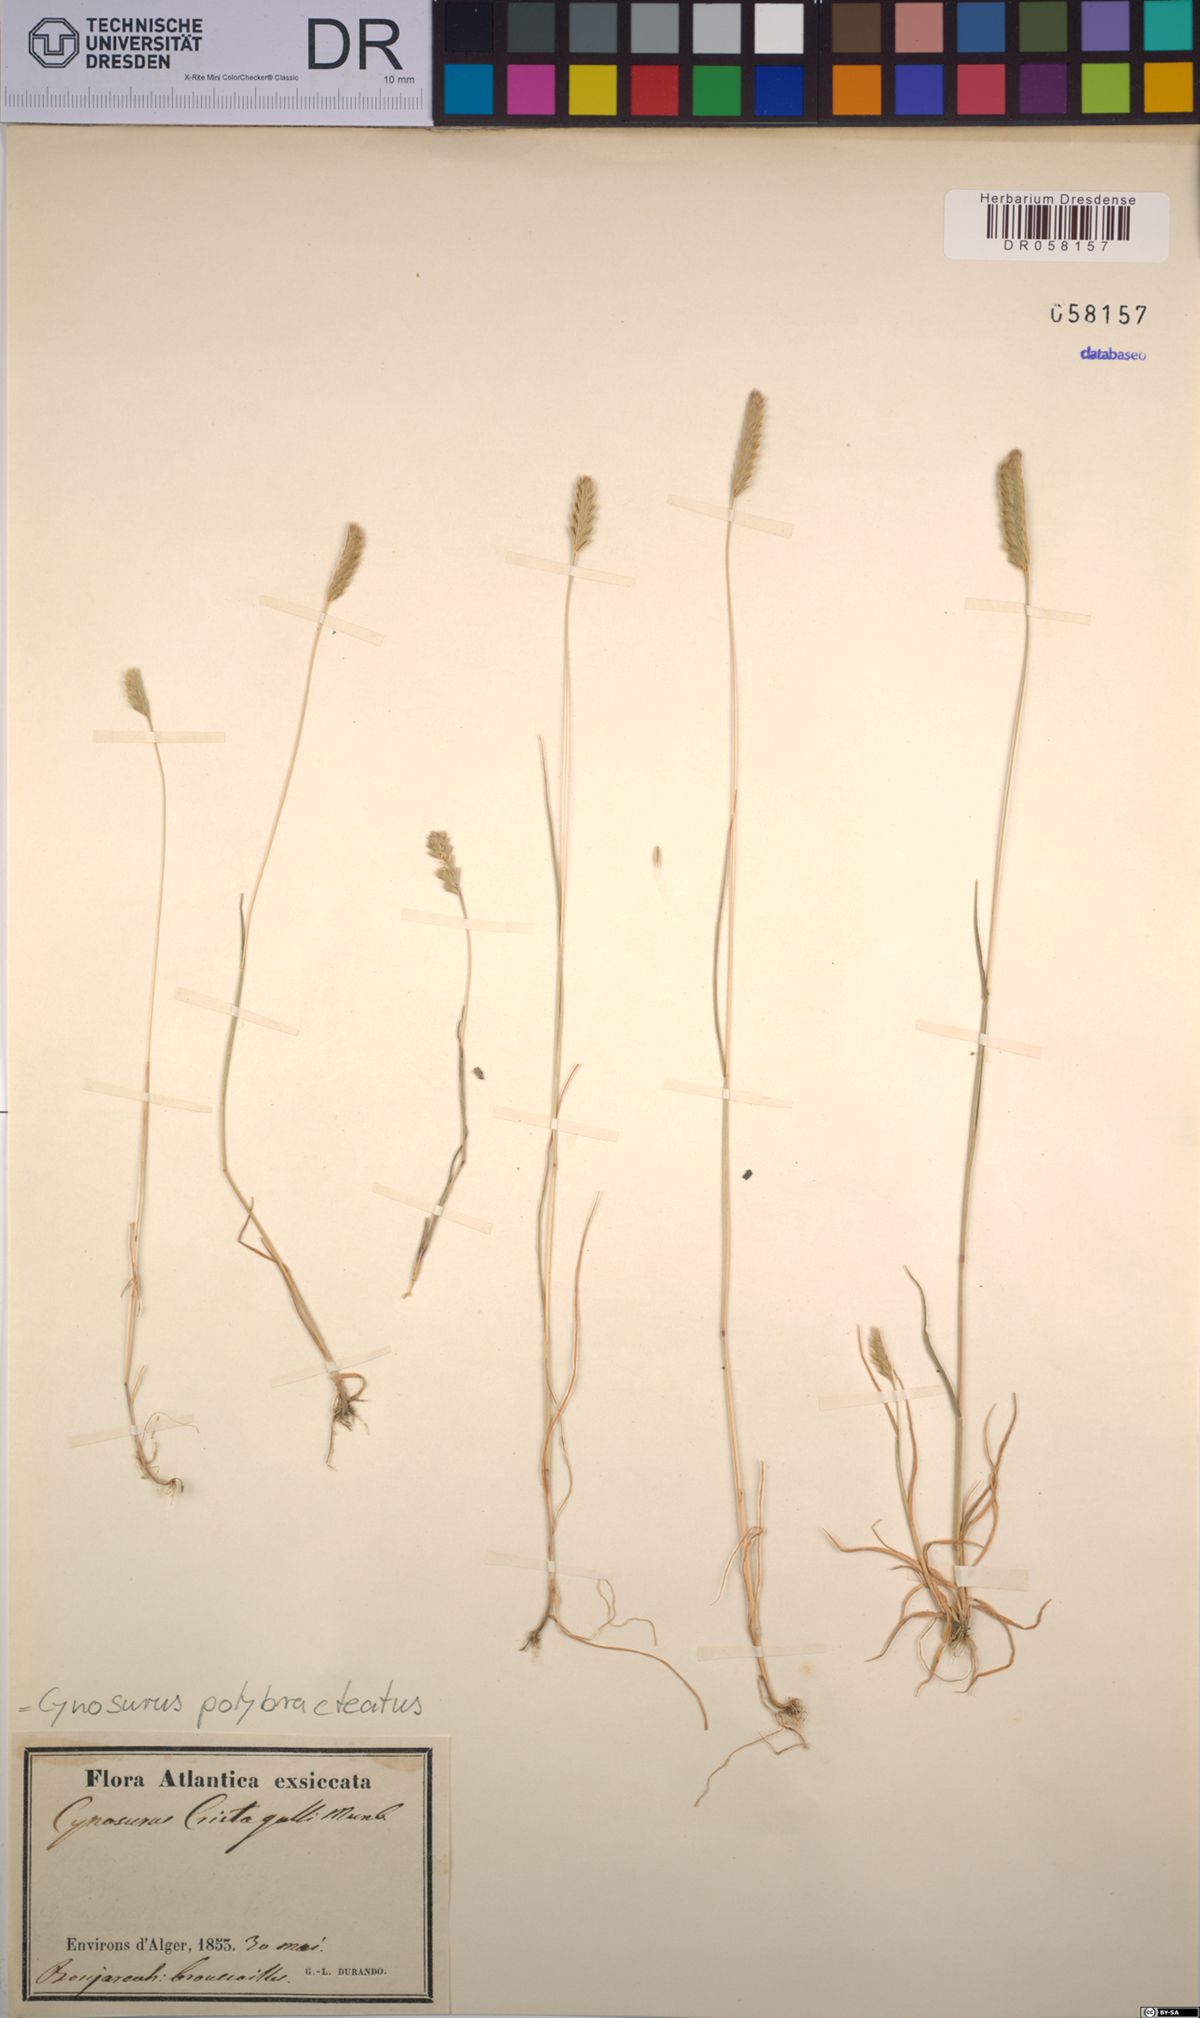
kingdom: Plantae
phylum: Tracheophyta
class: Liliopsida
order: Poales
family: Poaceae
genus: Cynosurus
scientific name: Cynosurus polybracteatus
